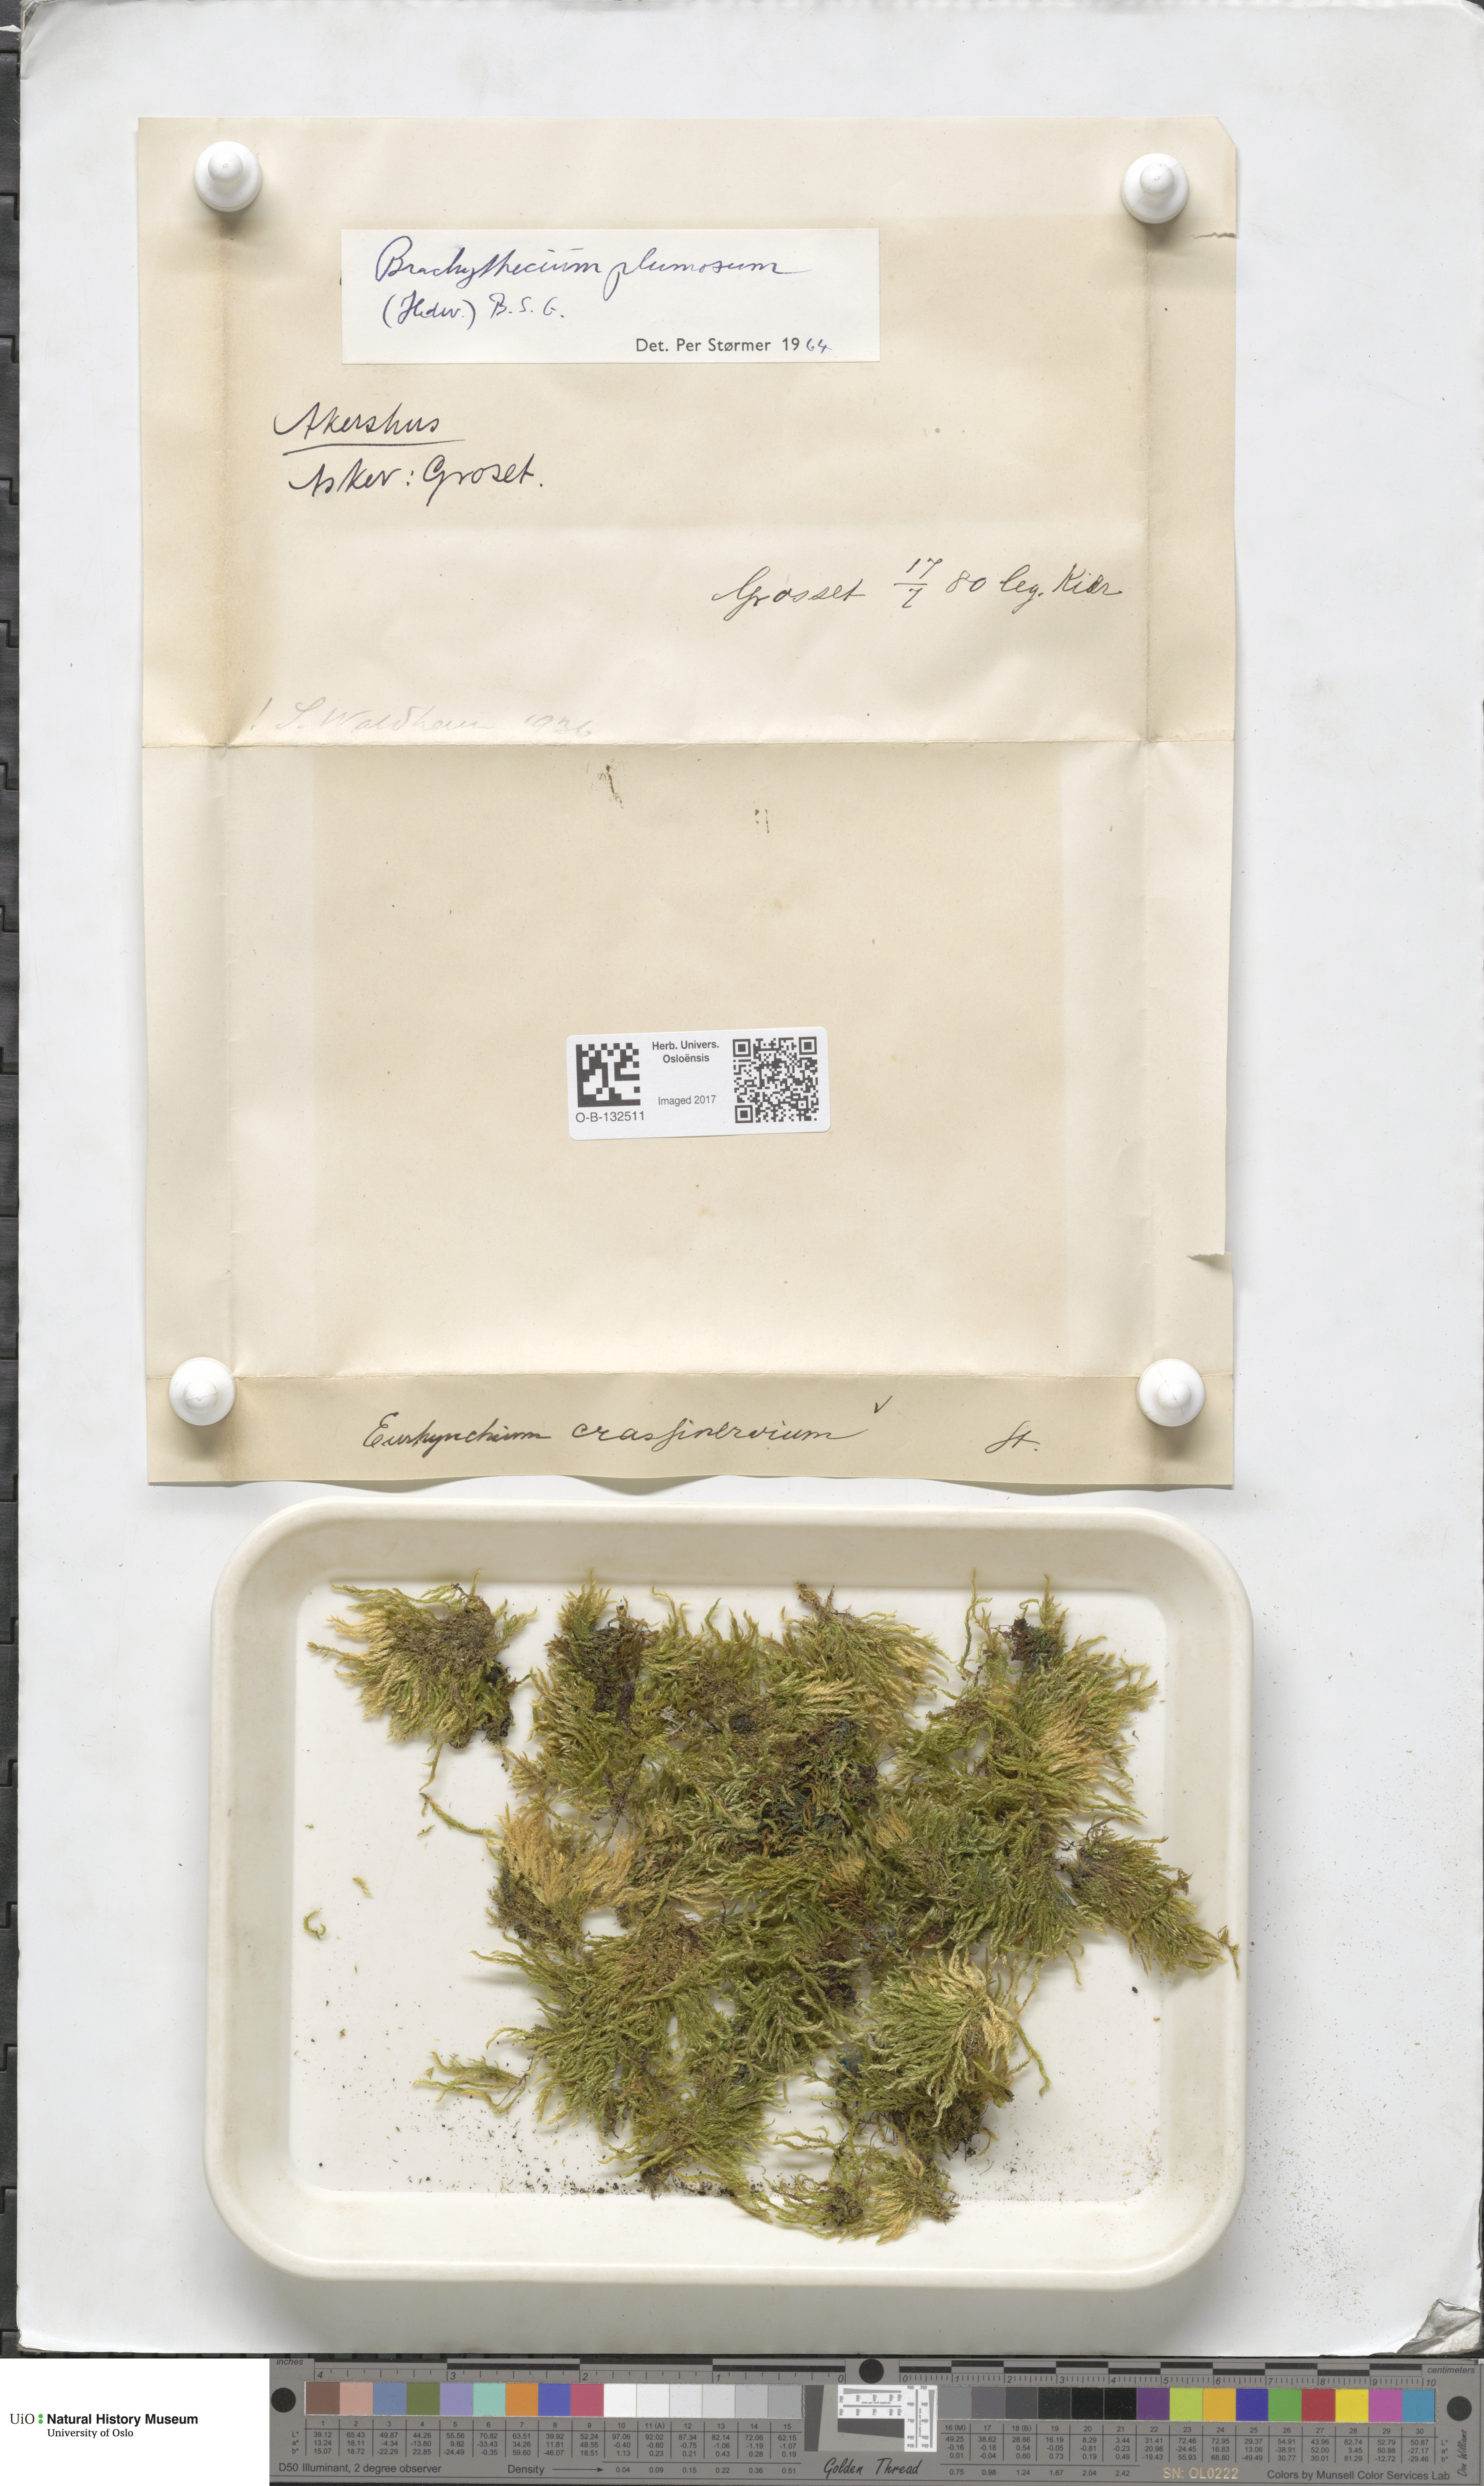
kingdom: Plantae
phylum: Bryophyta
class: Bryopsida
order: Hypnales
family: Brachytheciaceae
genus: Sciuro-hypnum
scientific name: Sciuro-hypnum plumosum
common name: Rusty feather-moss
